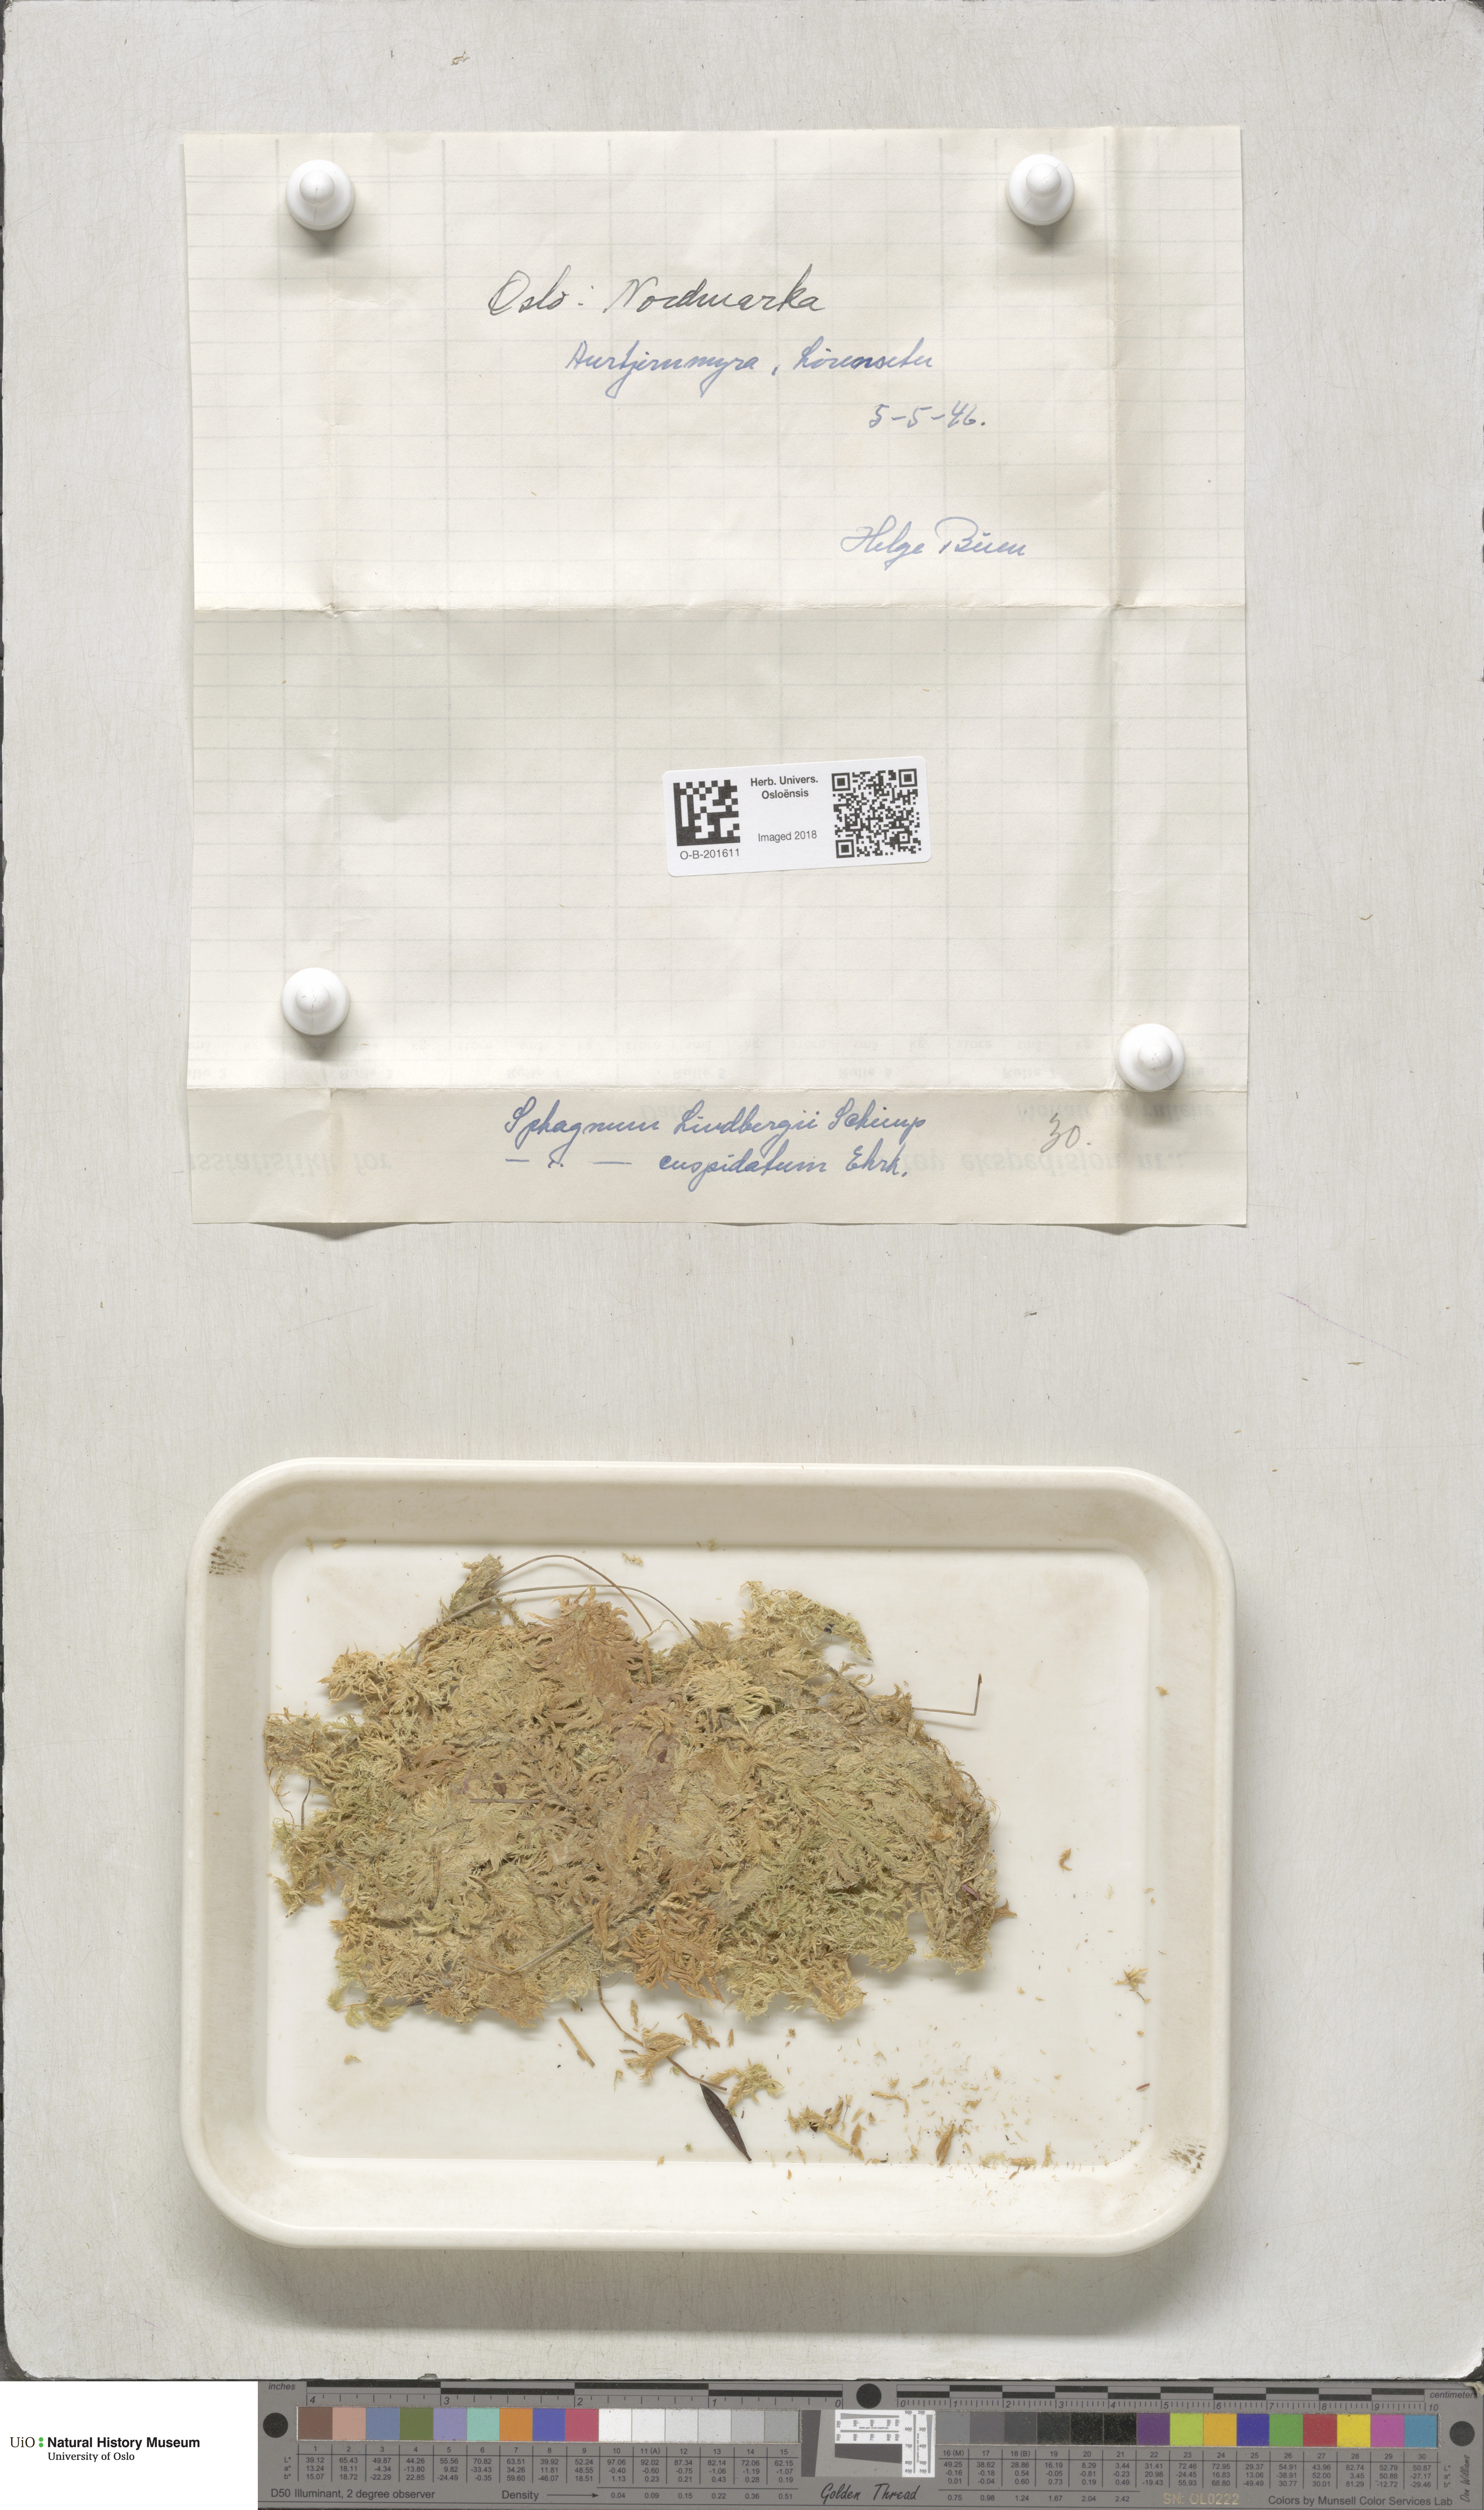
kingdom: Plantae
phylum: Bryophyta
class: Sphagnopsida
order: Sphagnales
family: Sphagnaceae
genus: Sphagnum
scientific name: Sphagnum lindbergii
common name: Lindberg's peat moss
